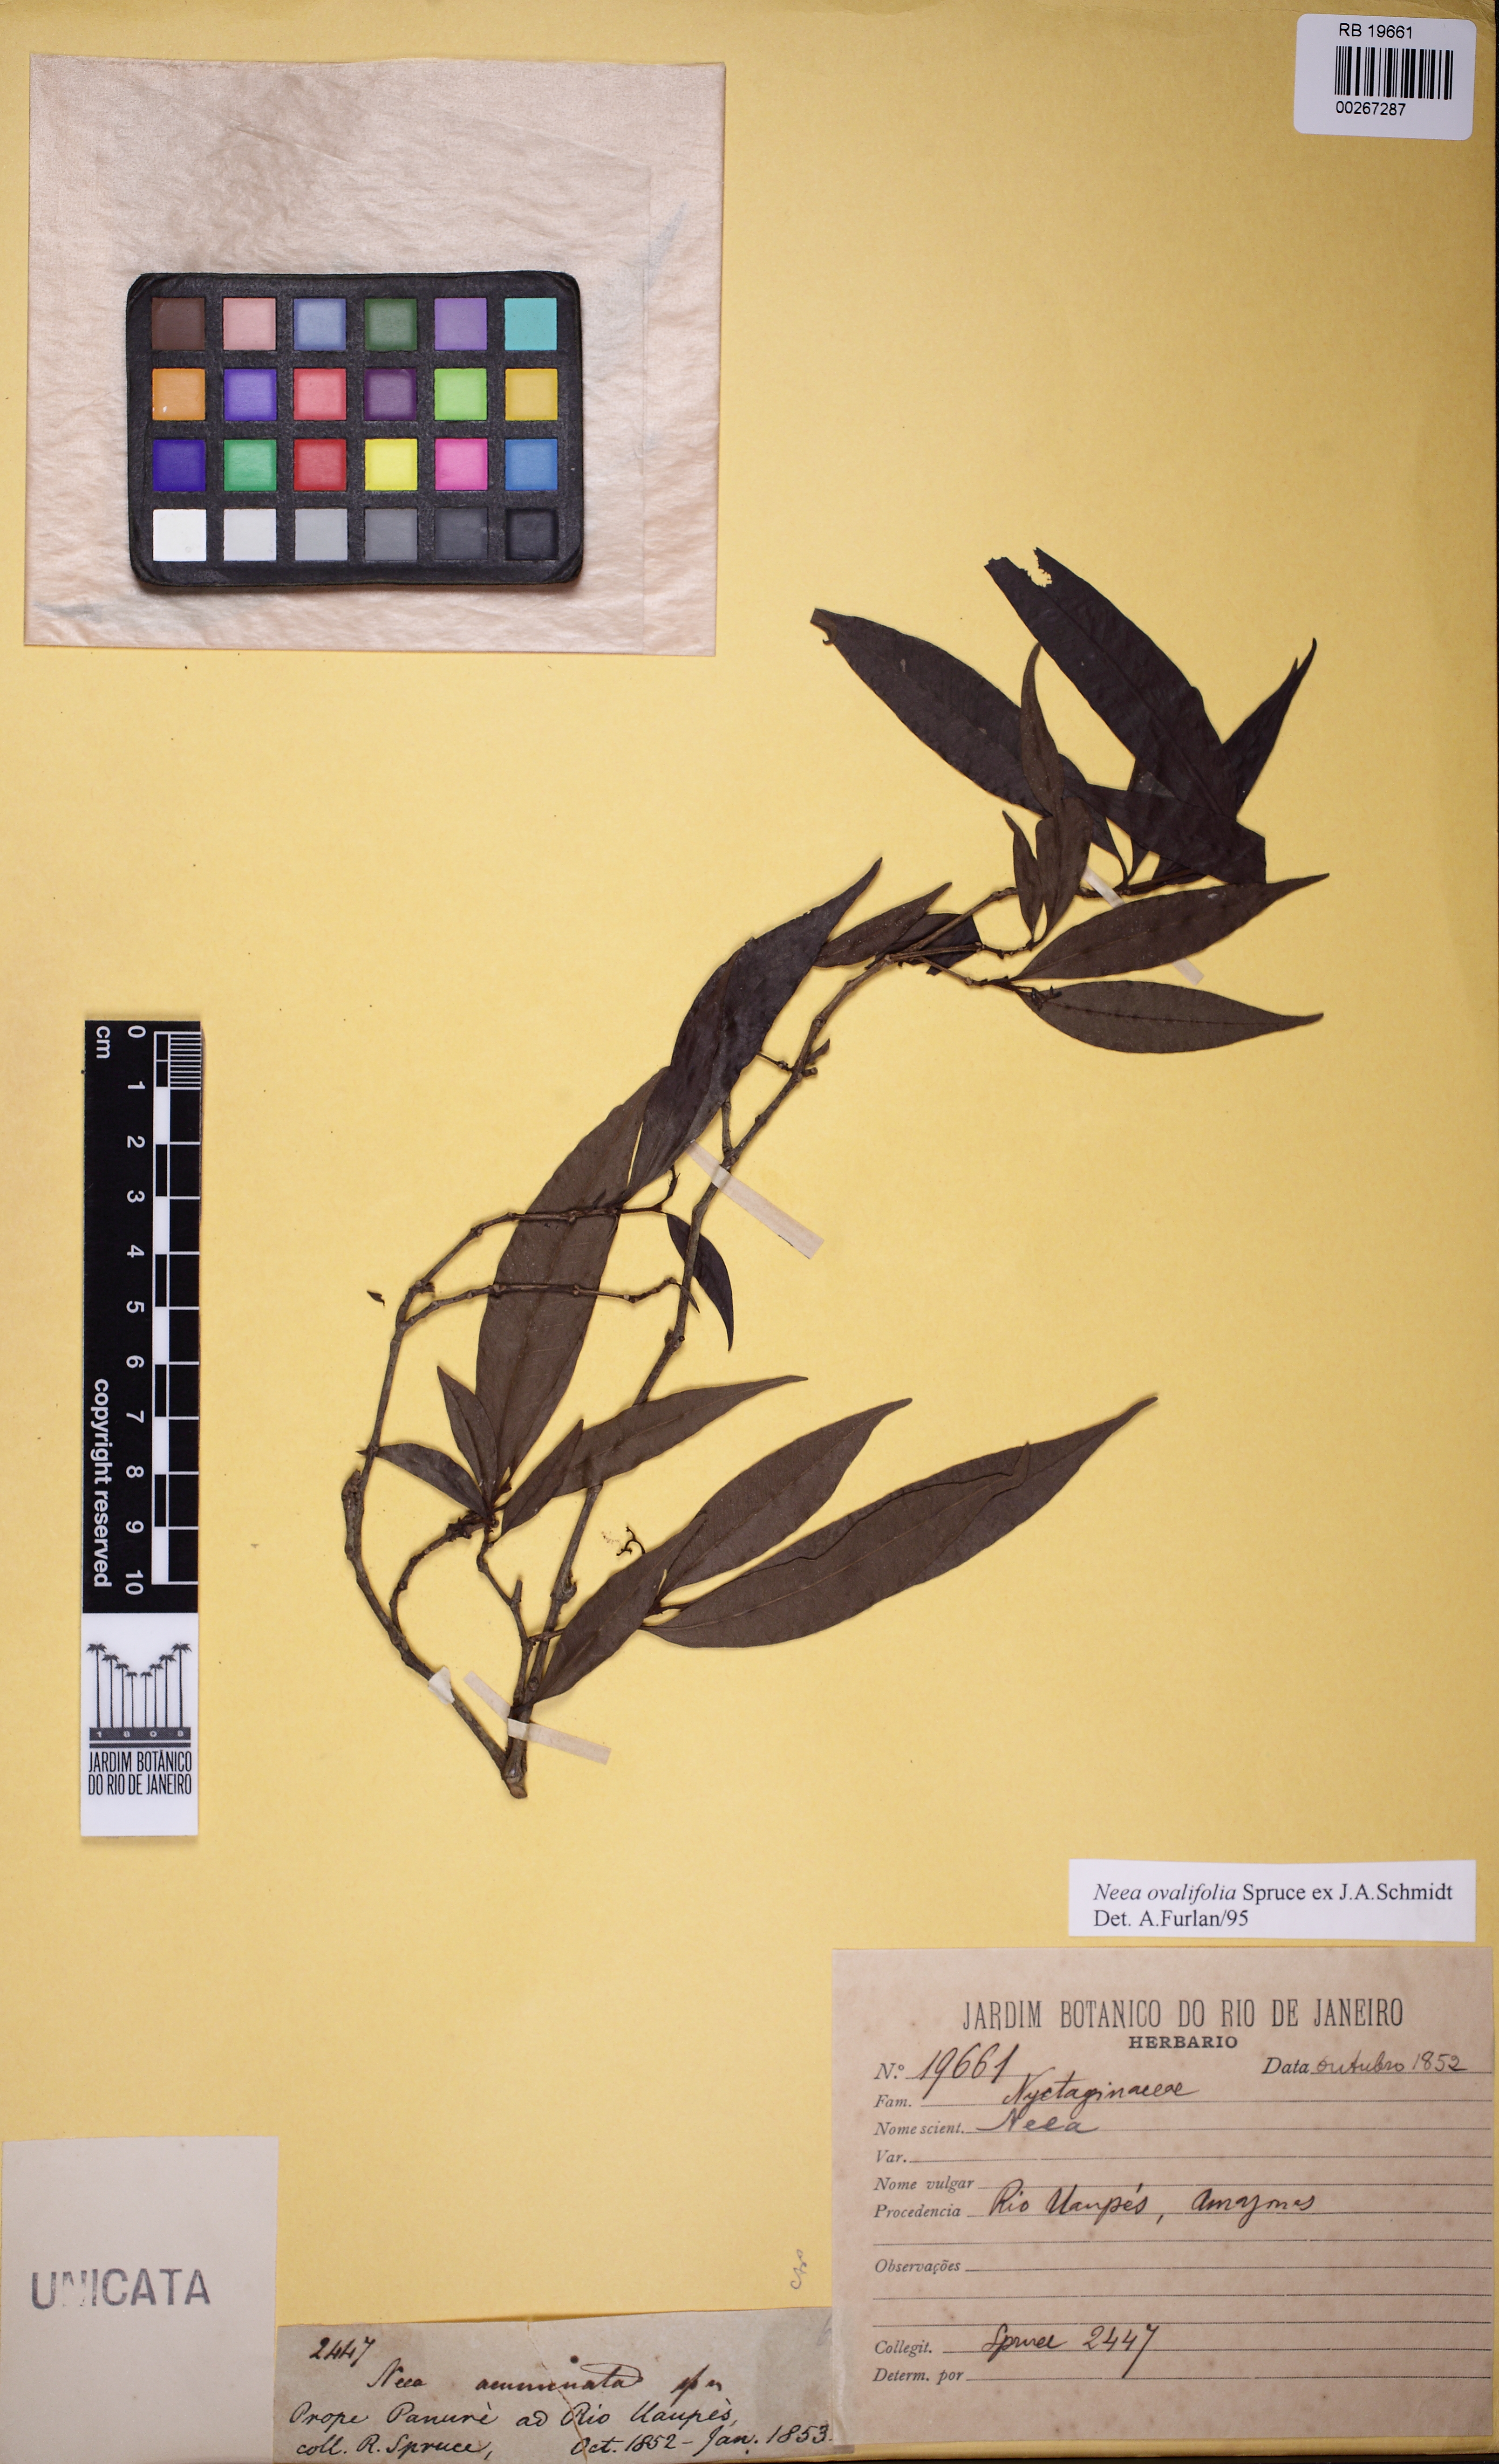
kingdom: Plantae
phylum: Tracheophyta
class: Magnoliopsida
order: Caryophyllales
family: Nyctaginaceae
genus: Neea
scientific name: Neea ovalifolia
